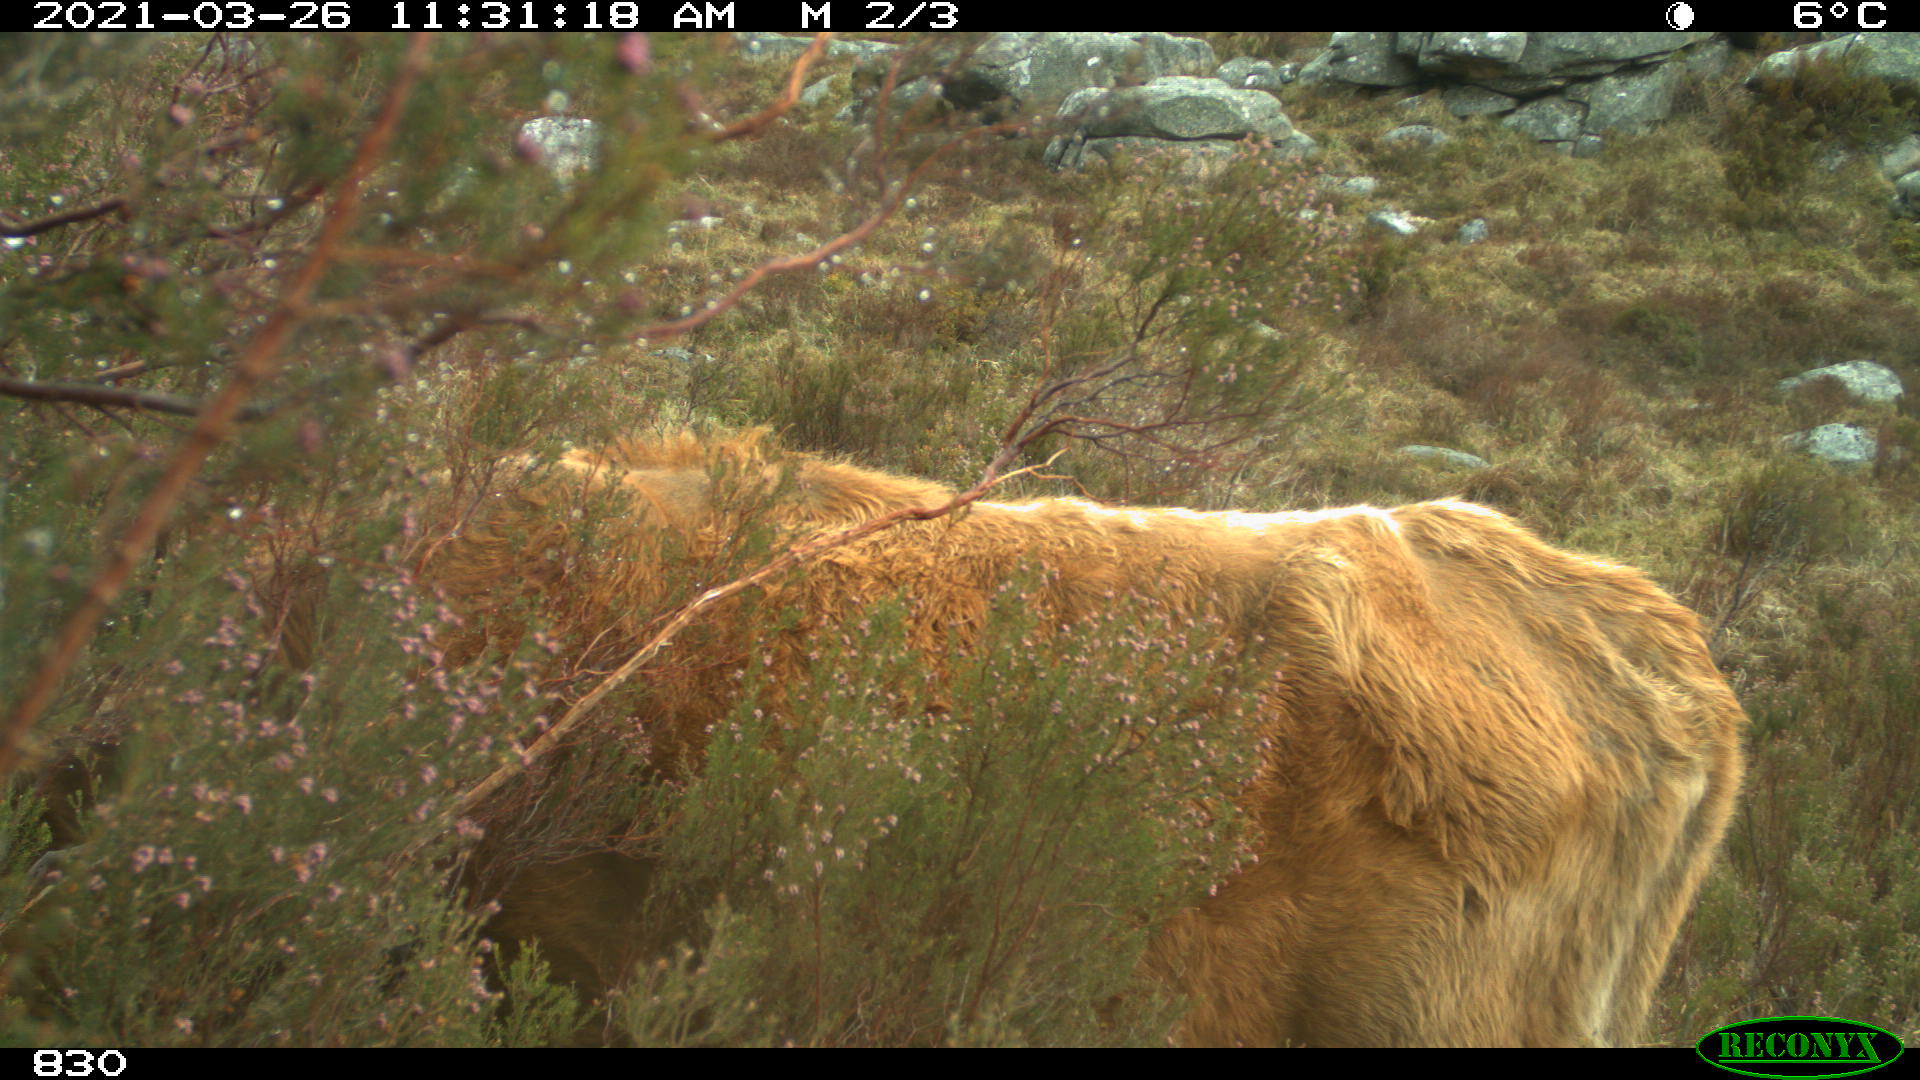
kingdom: Animalia
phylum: Chordata
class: Mammalia
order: Artiodactyla
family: Bovidae
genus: Bos
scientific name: Bos taurus
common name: Domesticated cattle
